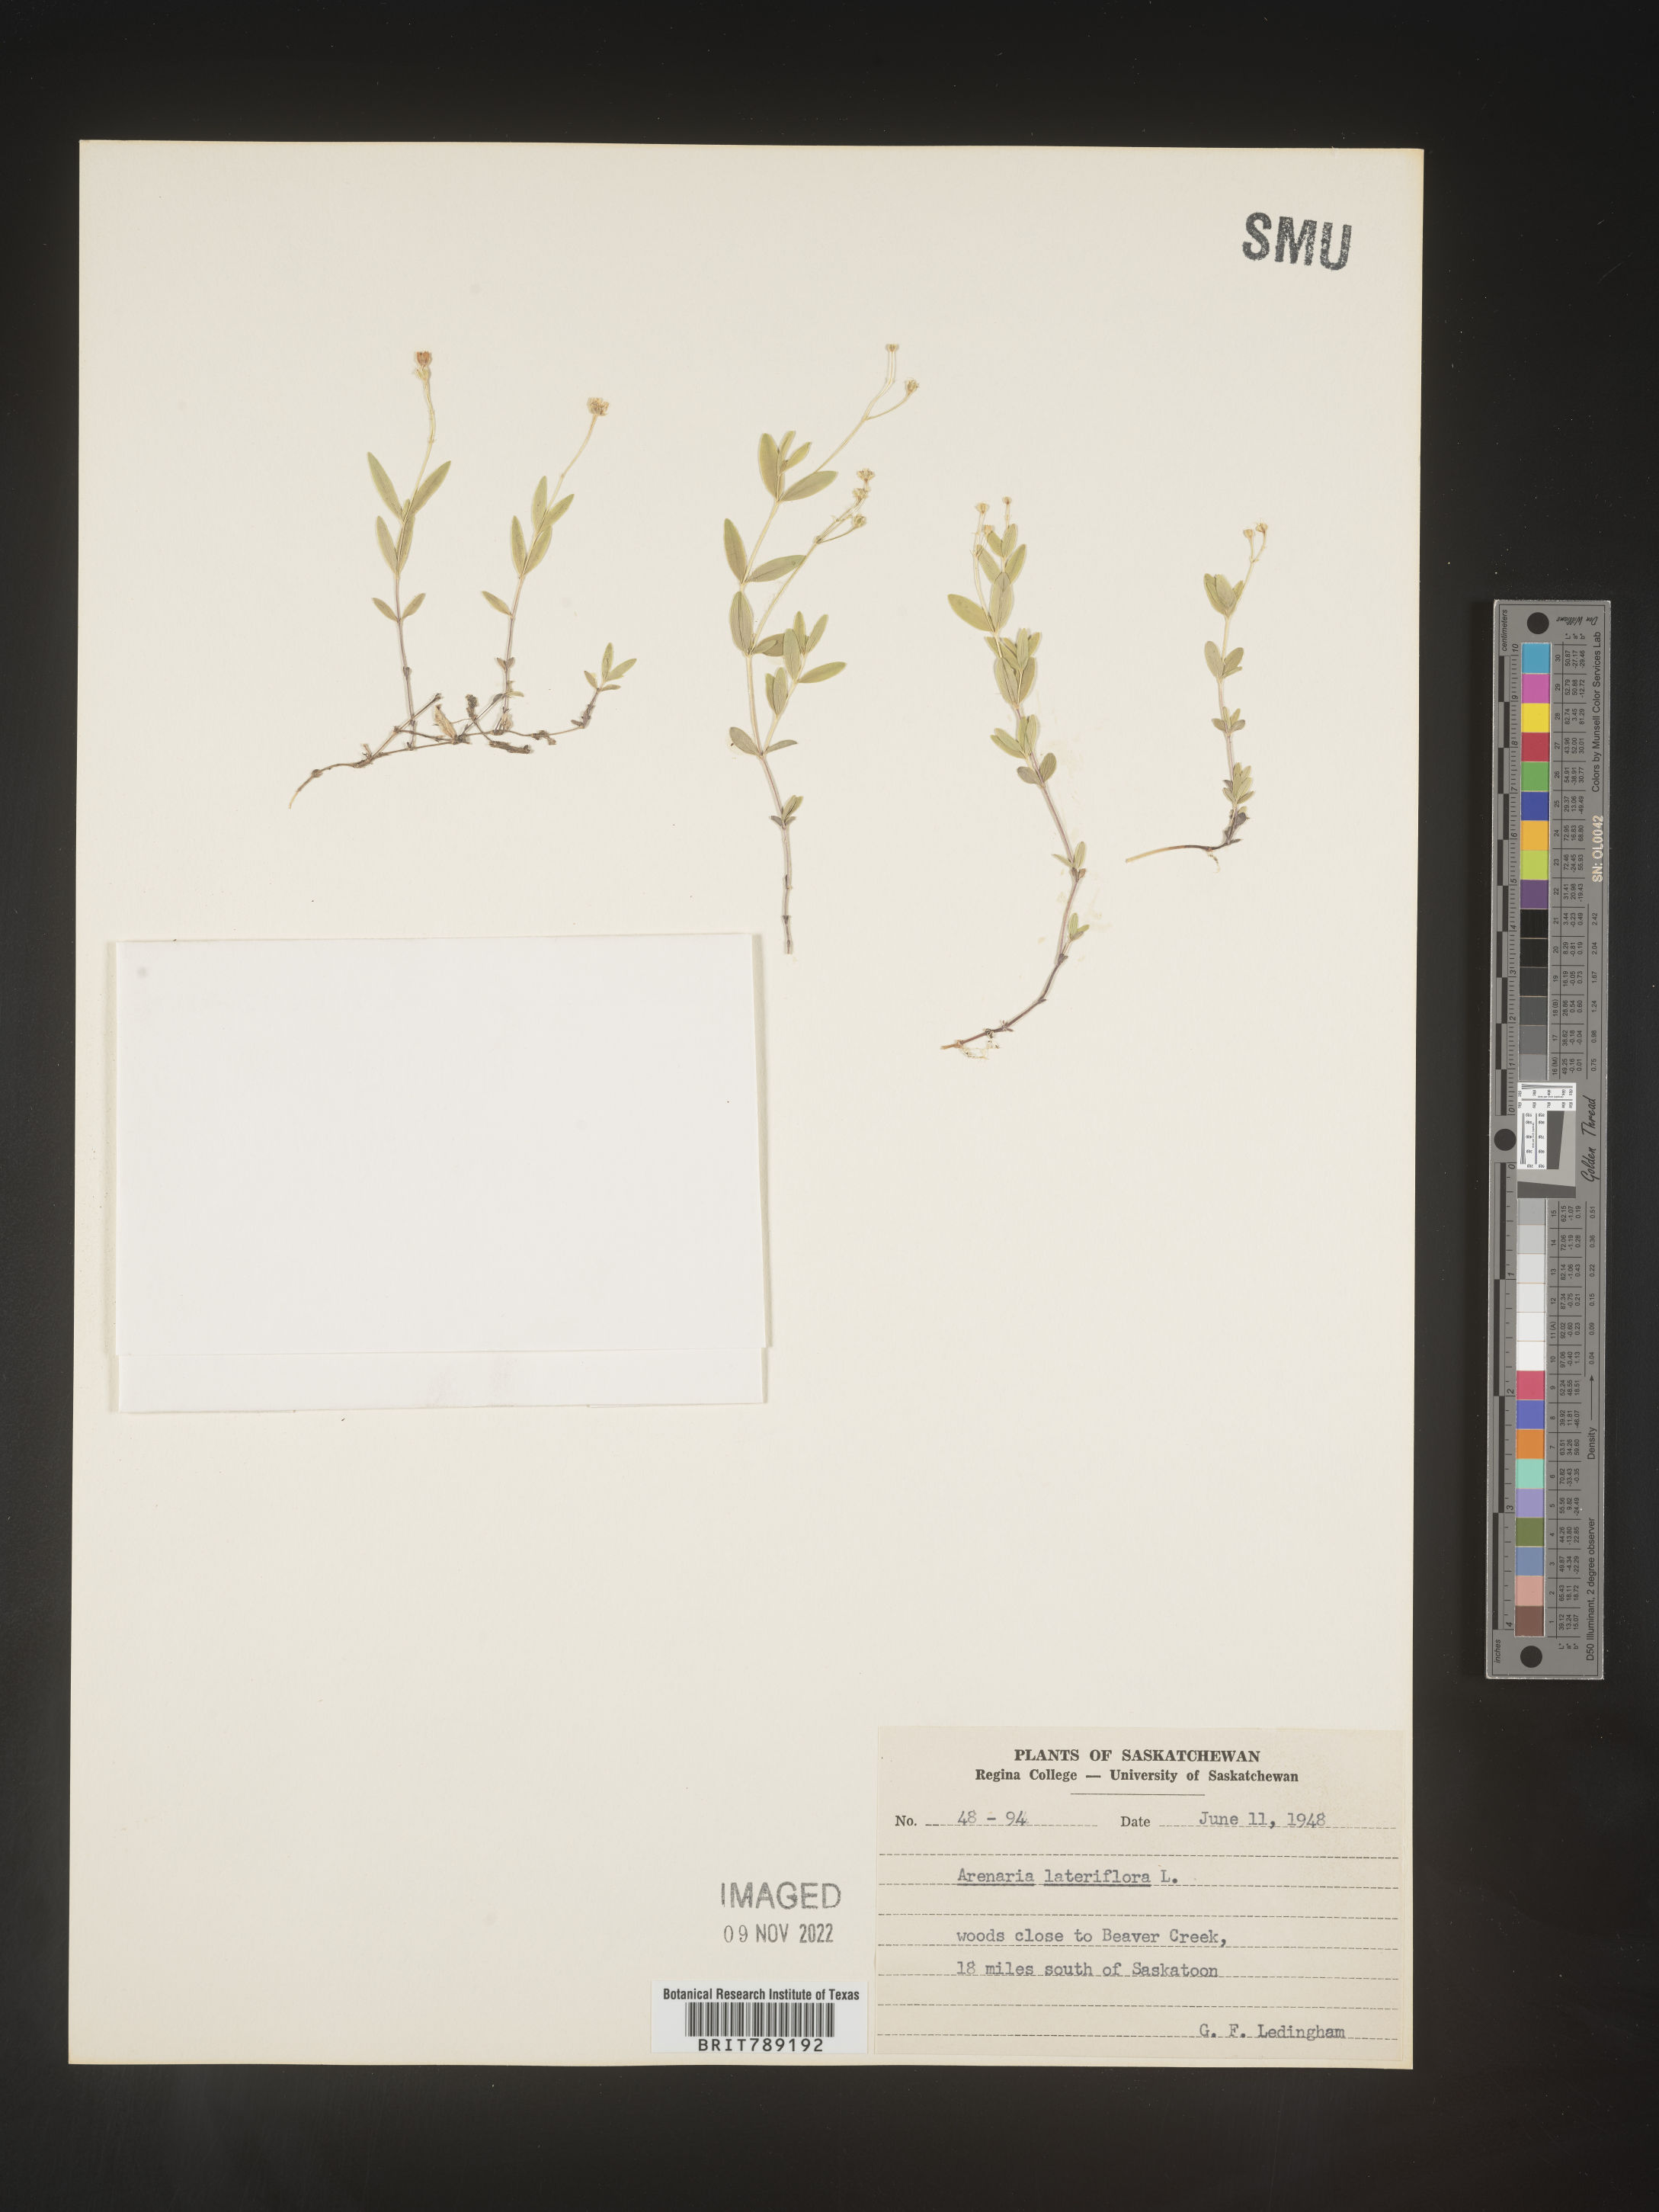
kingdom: Plantae
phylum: Tracheophyta
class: Magnoliopsida
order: Caryophyllales
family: Caryophyllaceae
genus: Arenaria
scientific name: Arenaria
